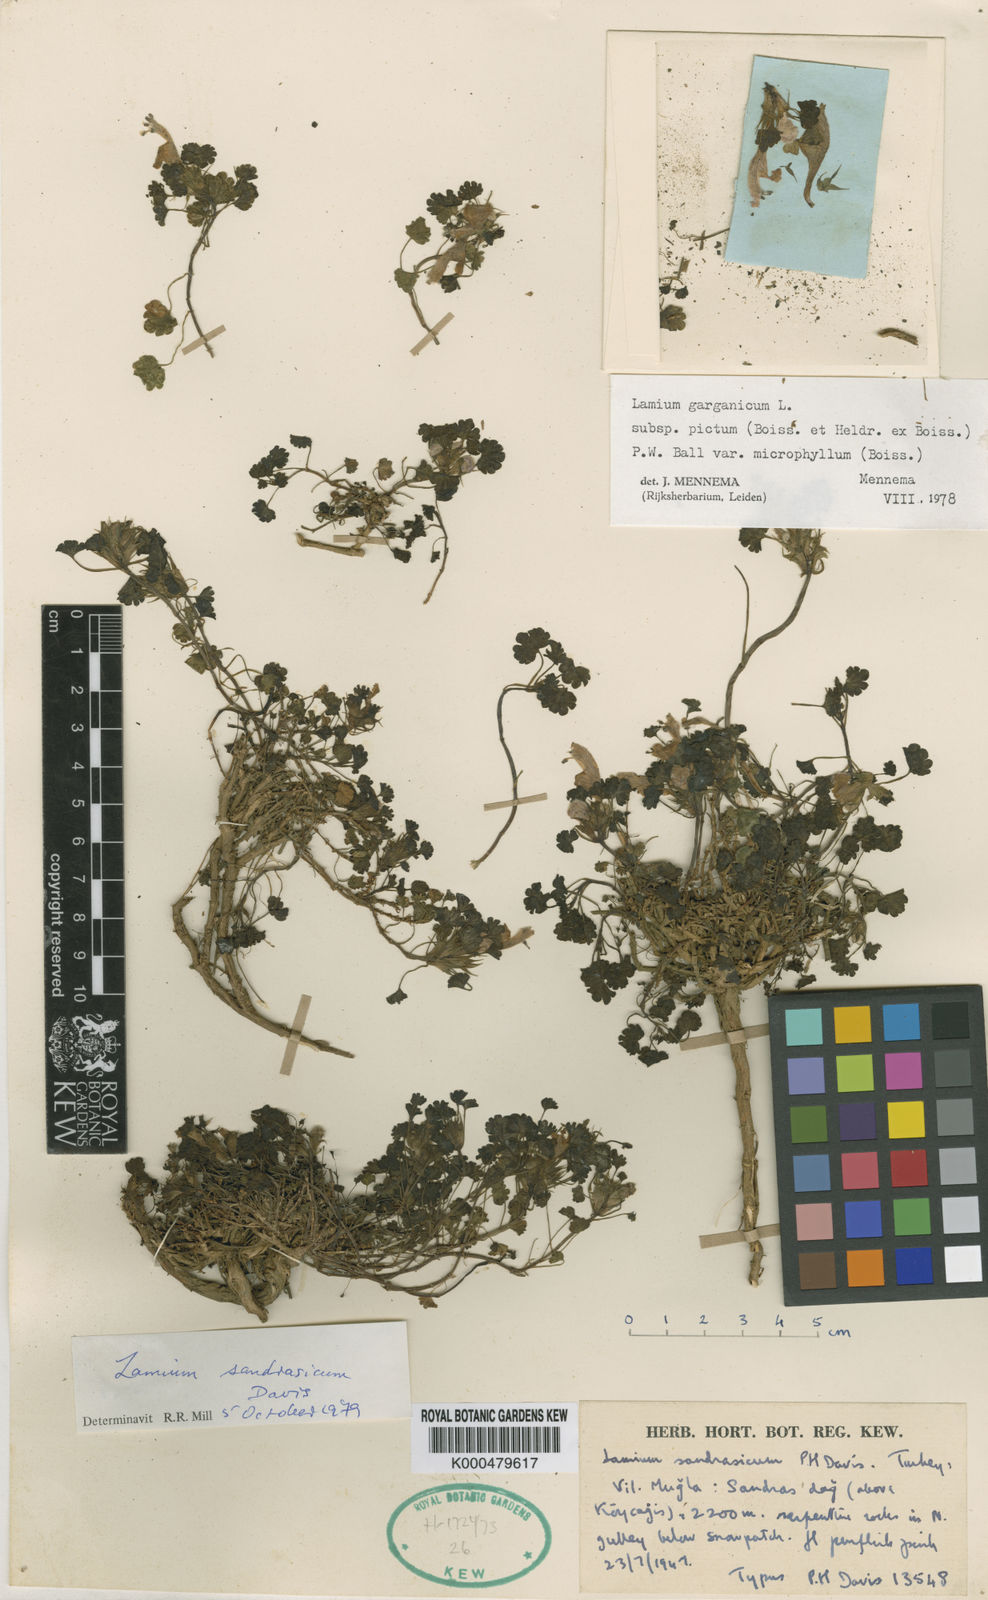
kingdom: Plantae
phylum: Tracheophyta
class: Magnoliopsida
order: Lamiales
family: Lamiaceae
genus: Lamium
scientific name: Lamium garganicum
